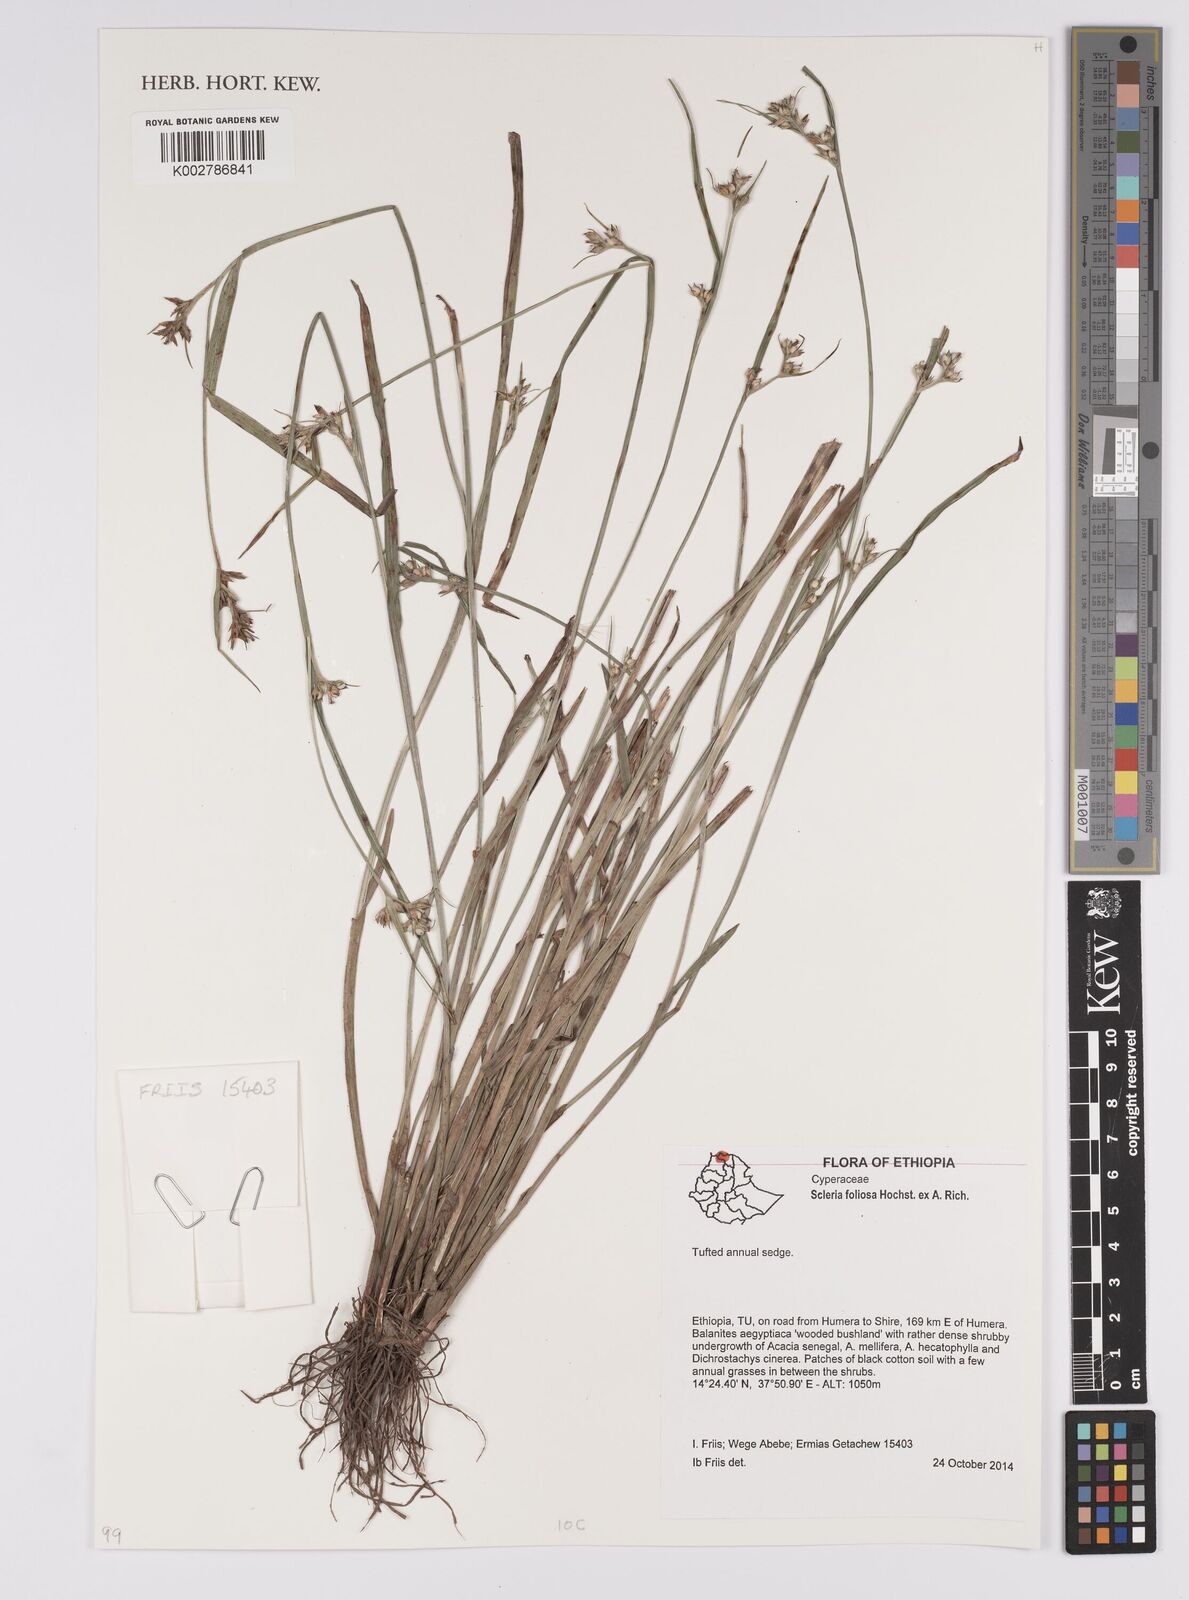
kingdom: Plantae
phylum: Tracheophyta
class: Liliopsida
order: Poales
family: Cyperaceae
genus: Scleria
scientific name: Scleria foliosa
